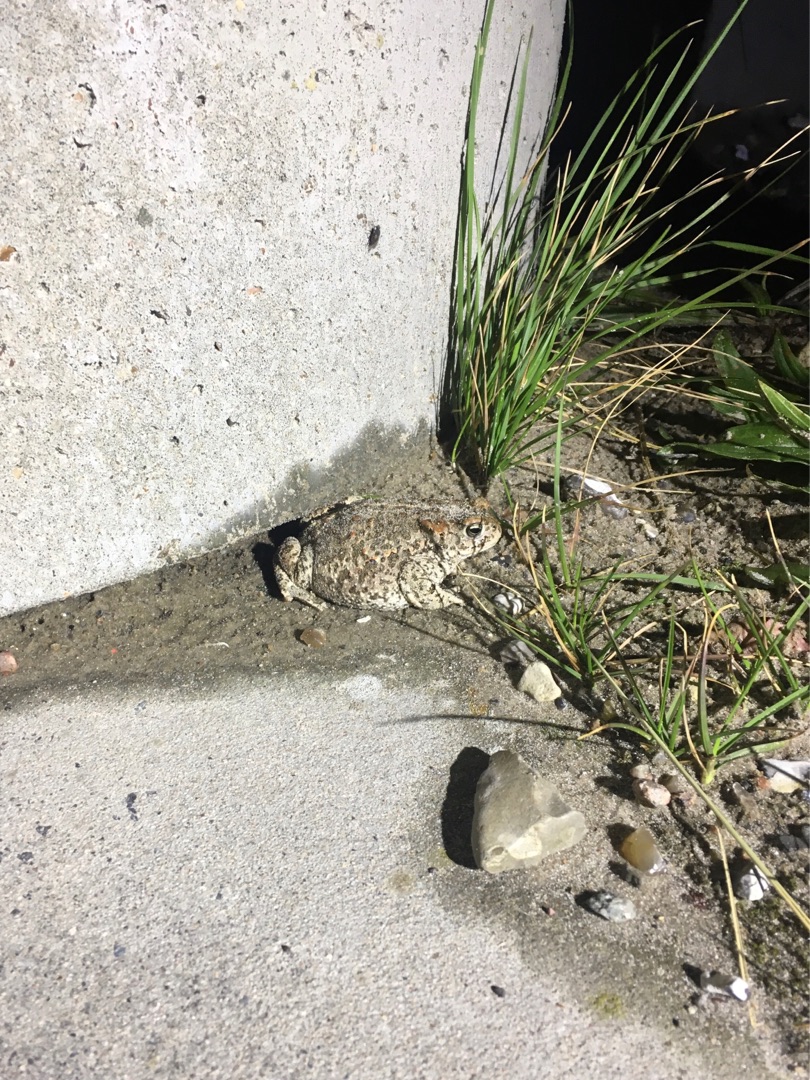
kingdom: Animalia
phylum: Chordata
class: Amphibia
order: Anura
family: Bufonidae
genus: Epidalea
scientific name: Epidalea calamita
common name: Strandtudse
